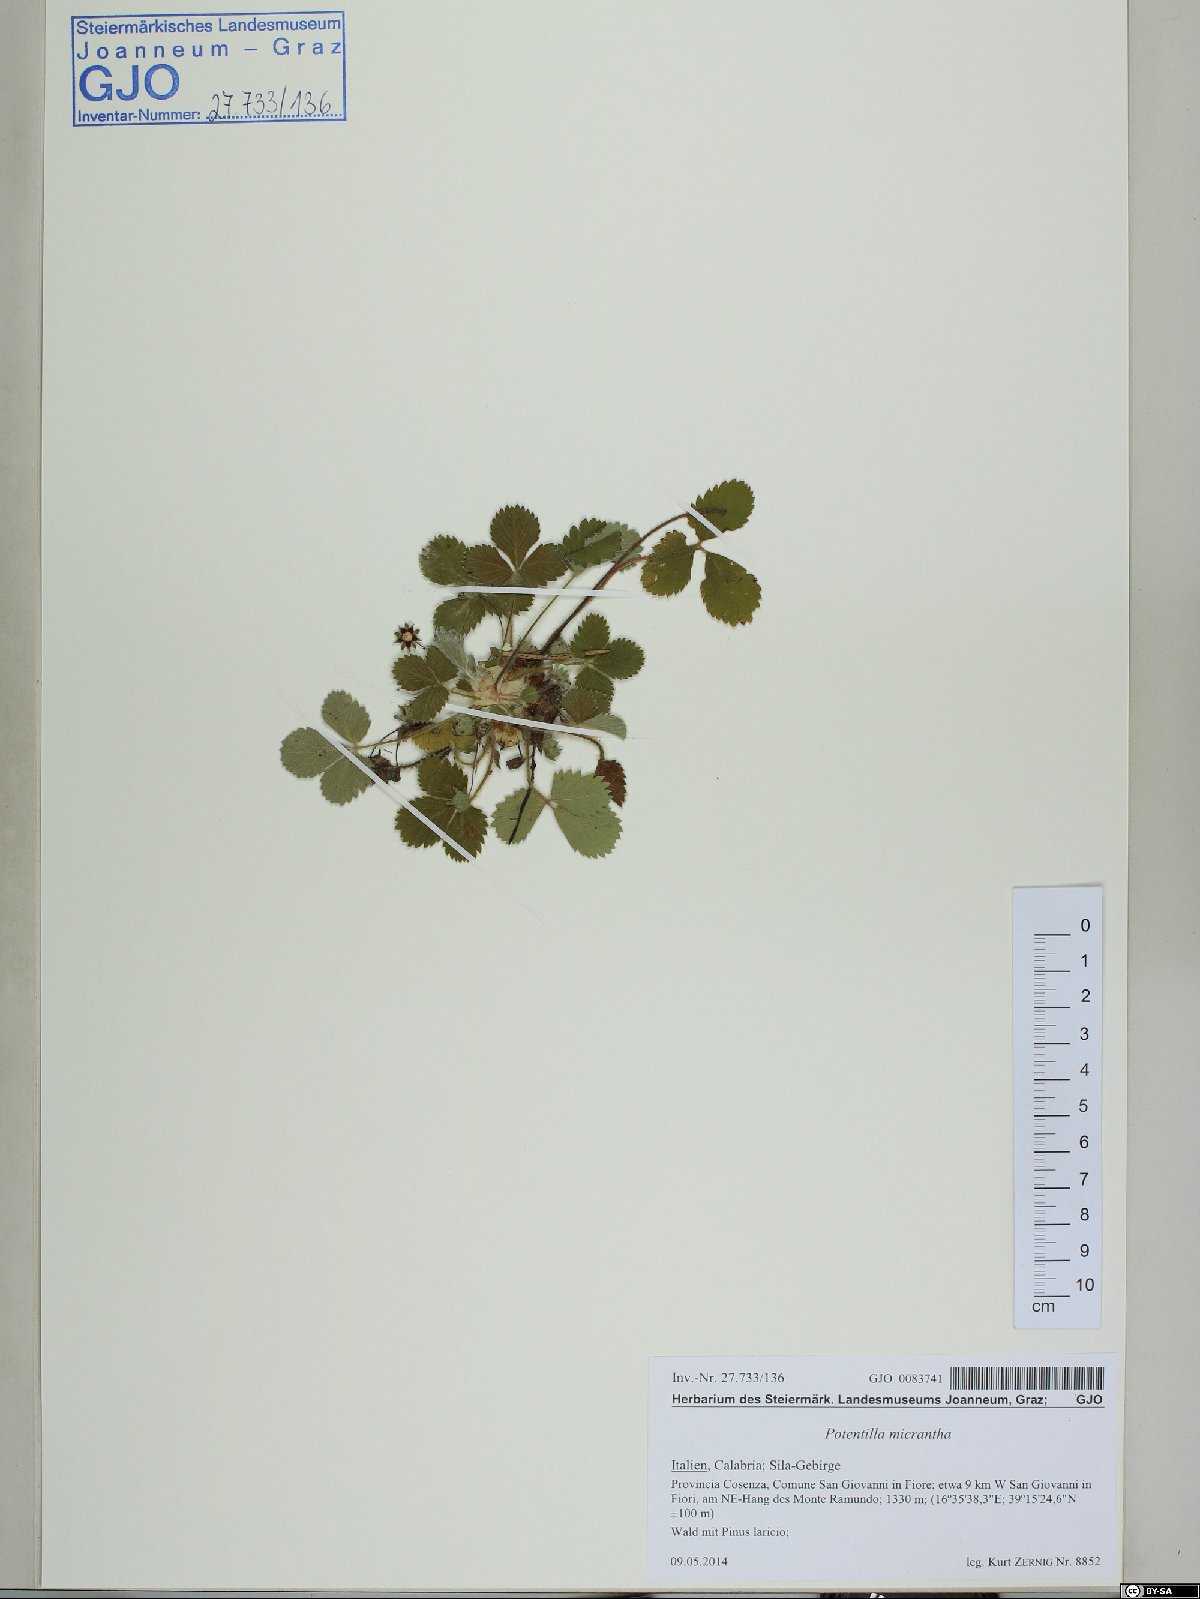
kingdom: Plantae
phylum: Tracheophyta
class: Magnoliopsida
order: Rosales
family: Rosaceae
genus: Potentilla
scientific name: Potentilla micrantha
